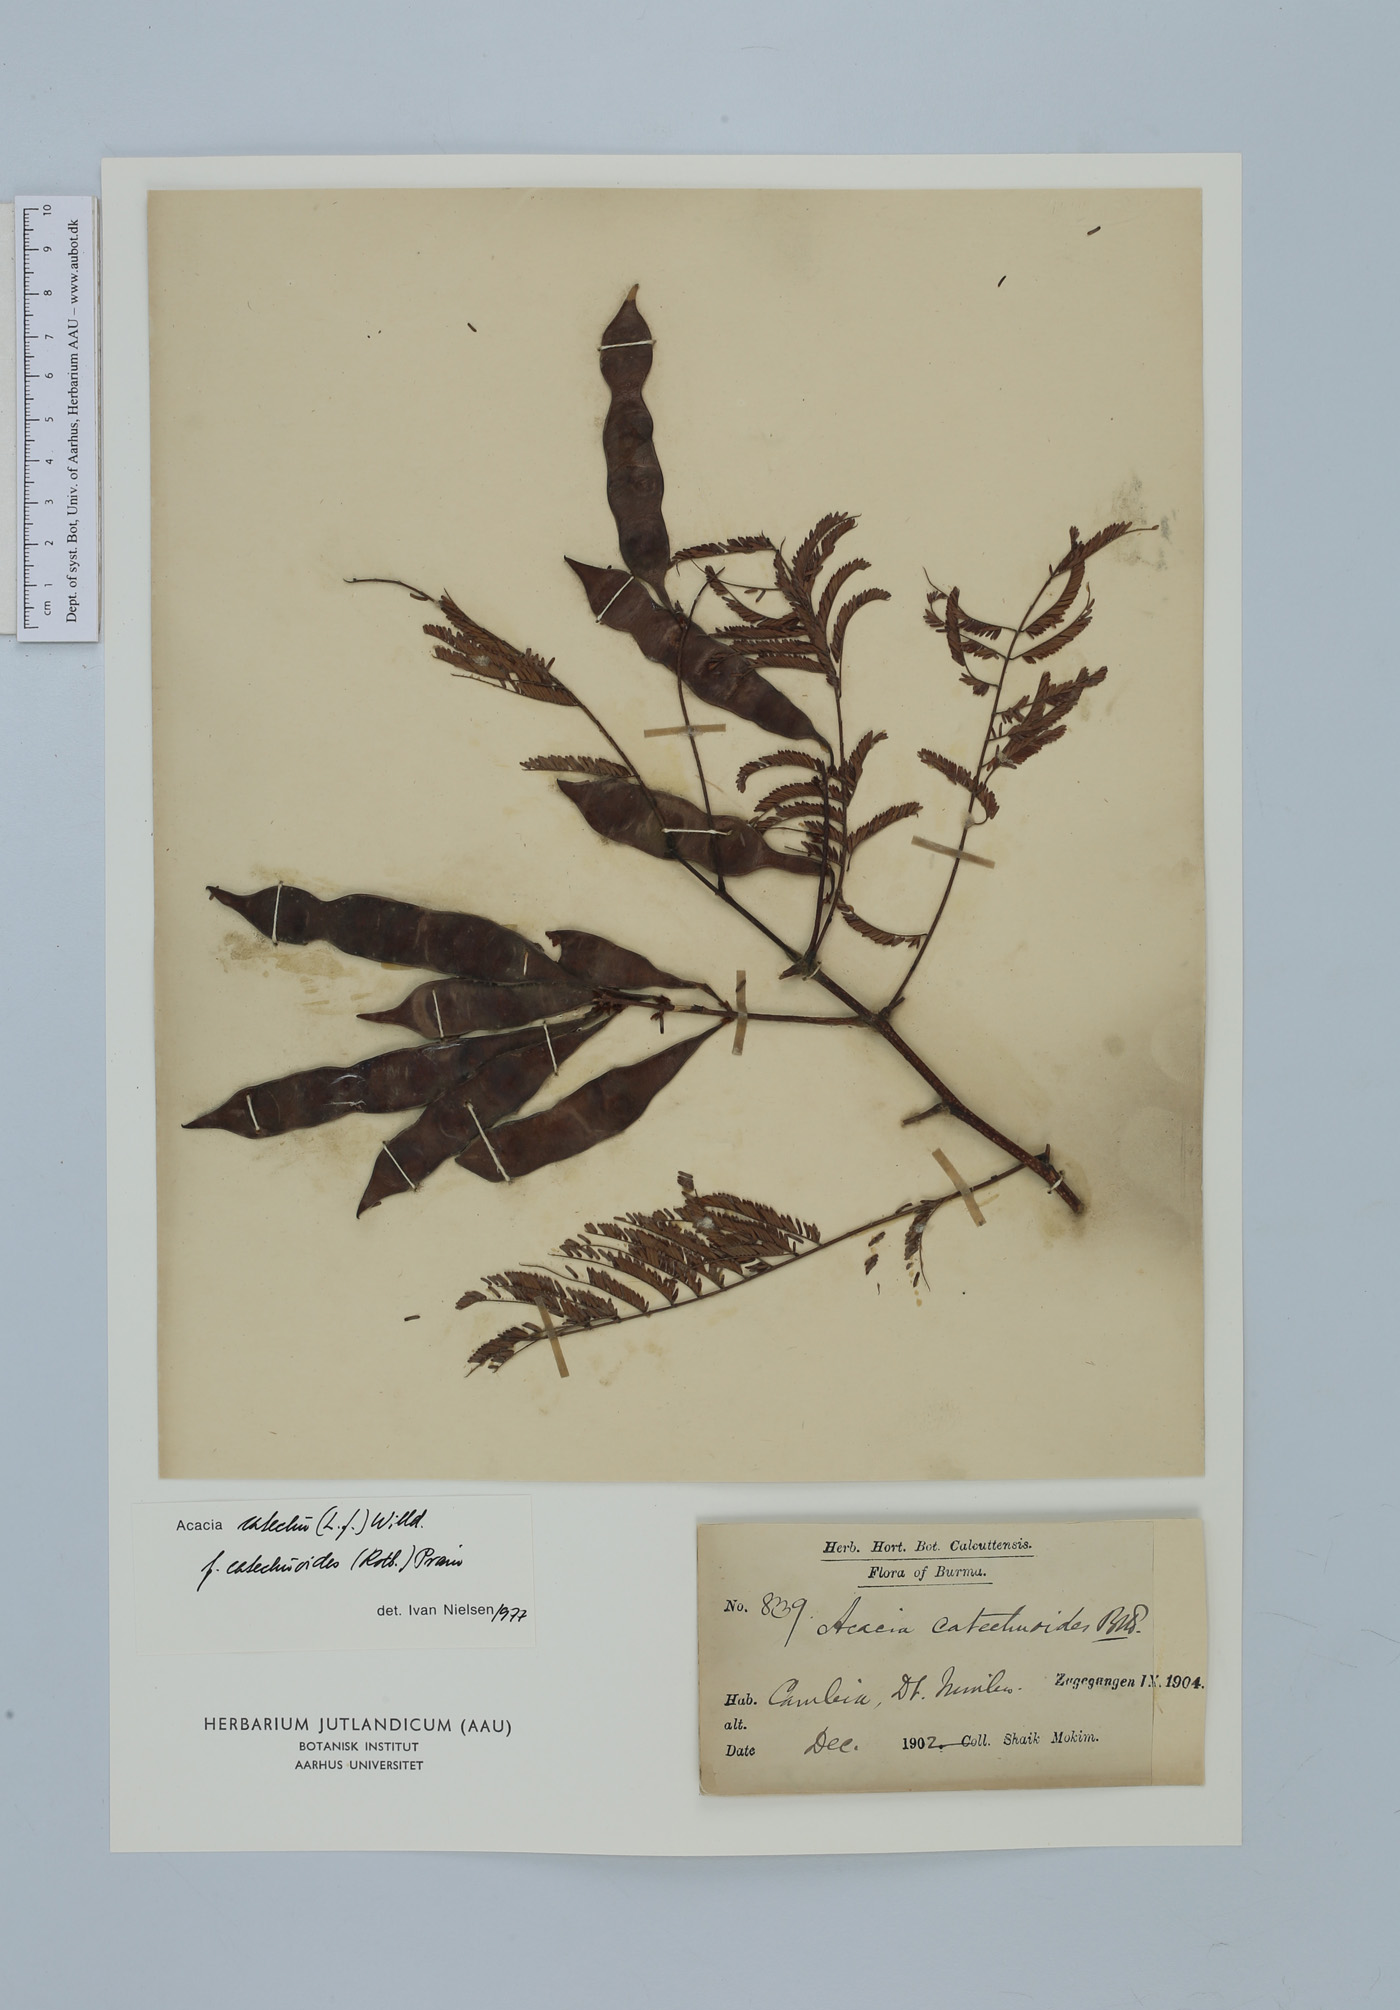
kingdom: Plantae
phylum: Tracheophyta
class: Magnoliopsida
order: Fabales
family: Fabaceae
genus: Senegalia
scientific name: Senegalia catechu
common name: Black cutch
